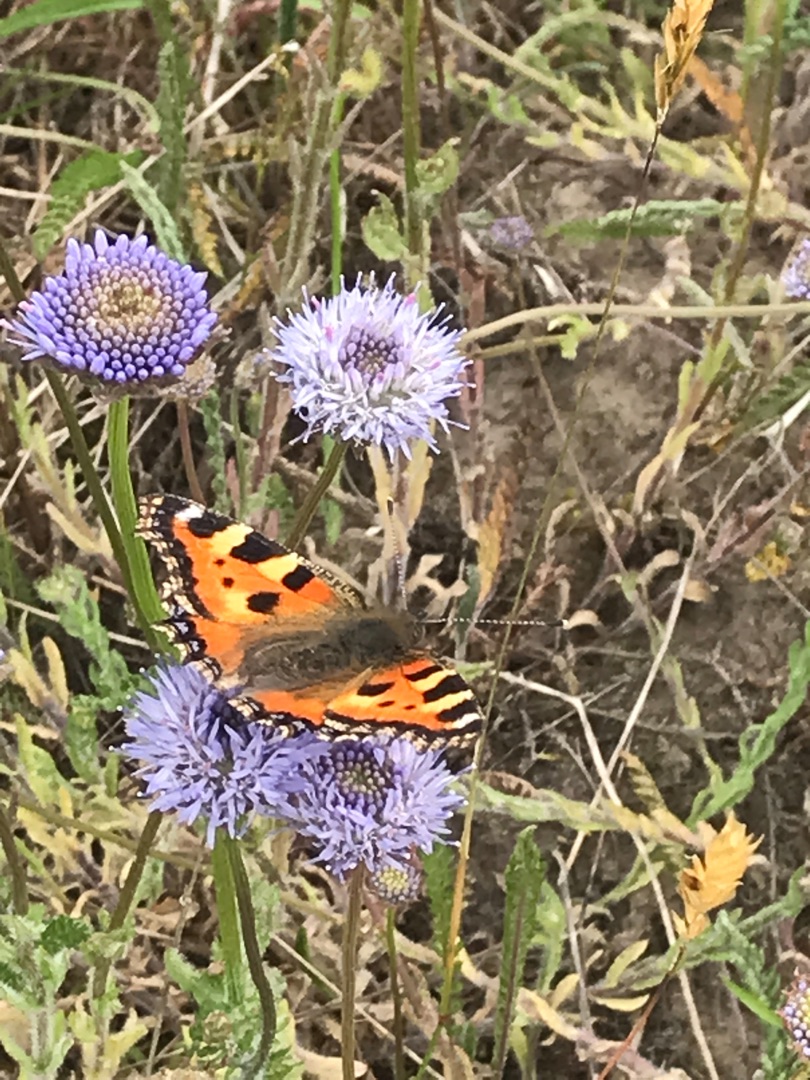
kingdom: Animalia
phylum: Arthropoda
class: Insecta
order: Lepidoptera
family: Nymphalidae
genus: Aglais
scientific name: Aglais urticae
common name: Nældens takvinge
